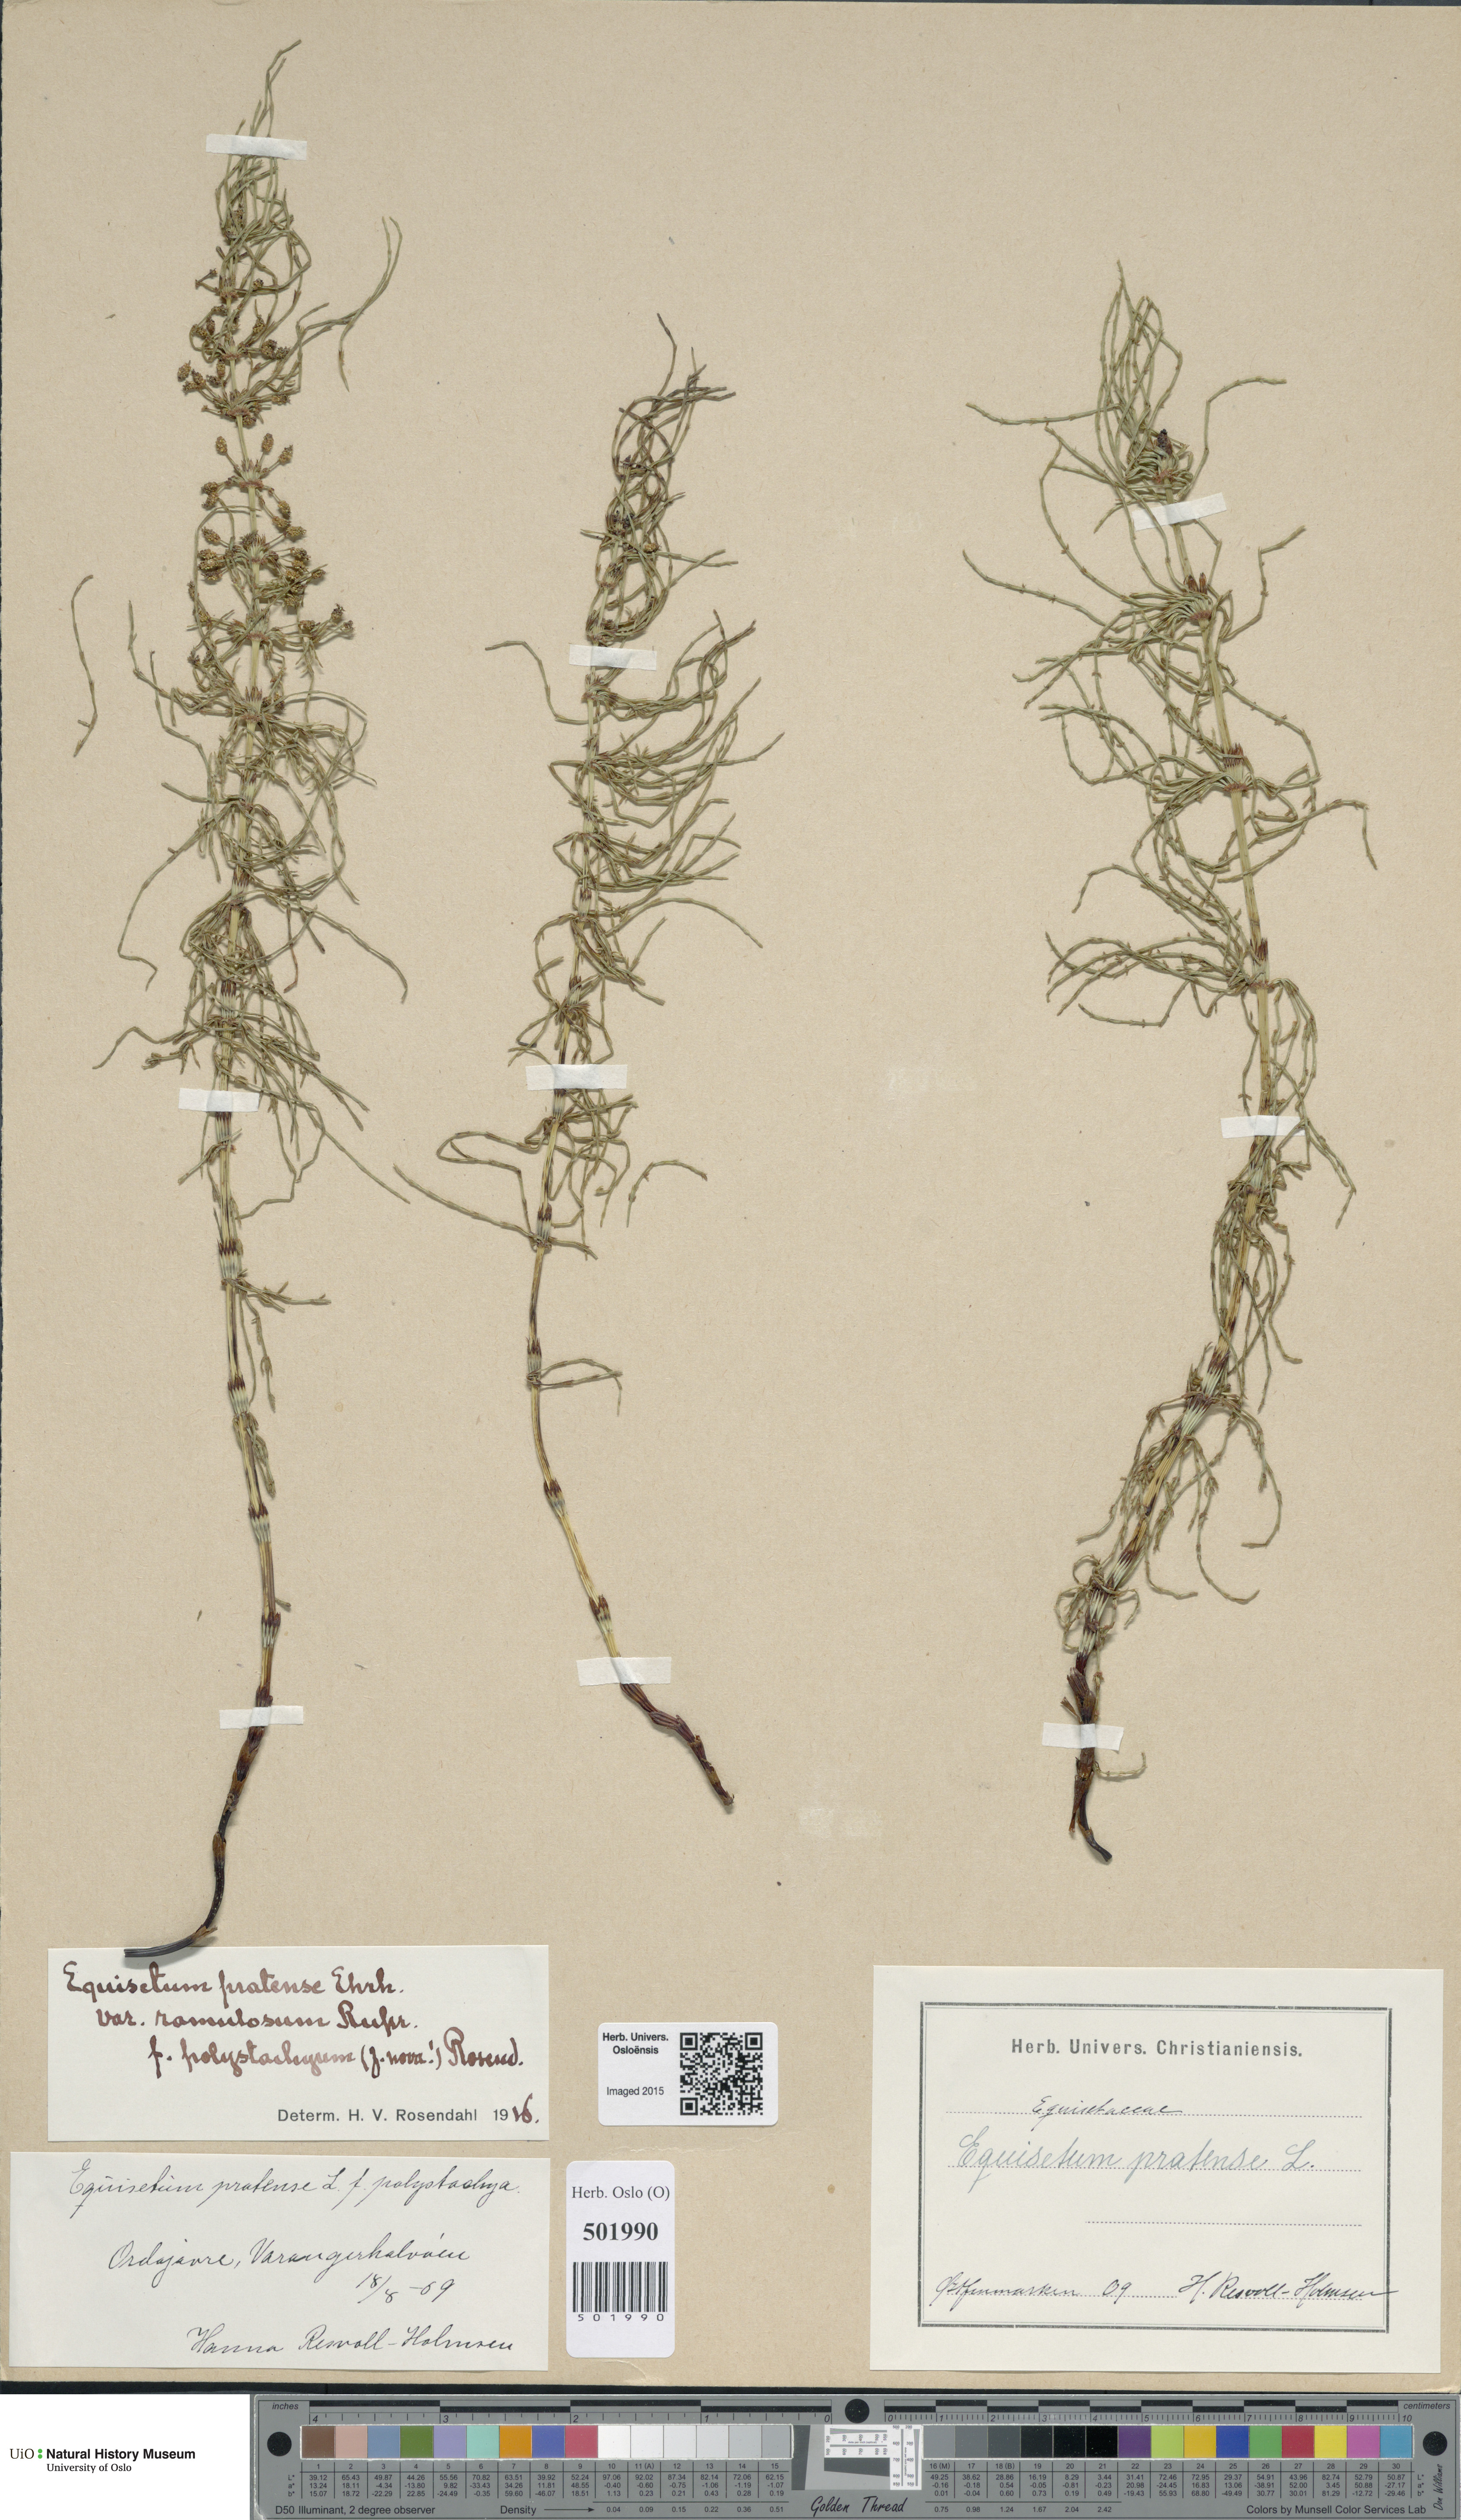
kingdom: Plantae
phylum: Tracheophyta
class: Polypodiopsida
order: Equisetales
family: Equisetaceae
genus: Equisetum
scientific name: Equisetum pratense
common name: Meadow horsetail
